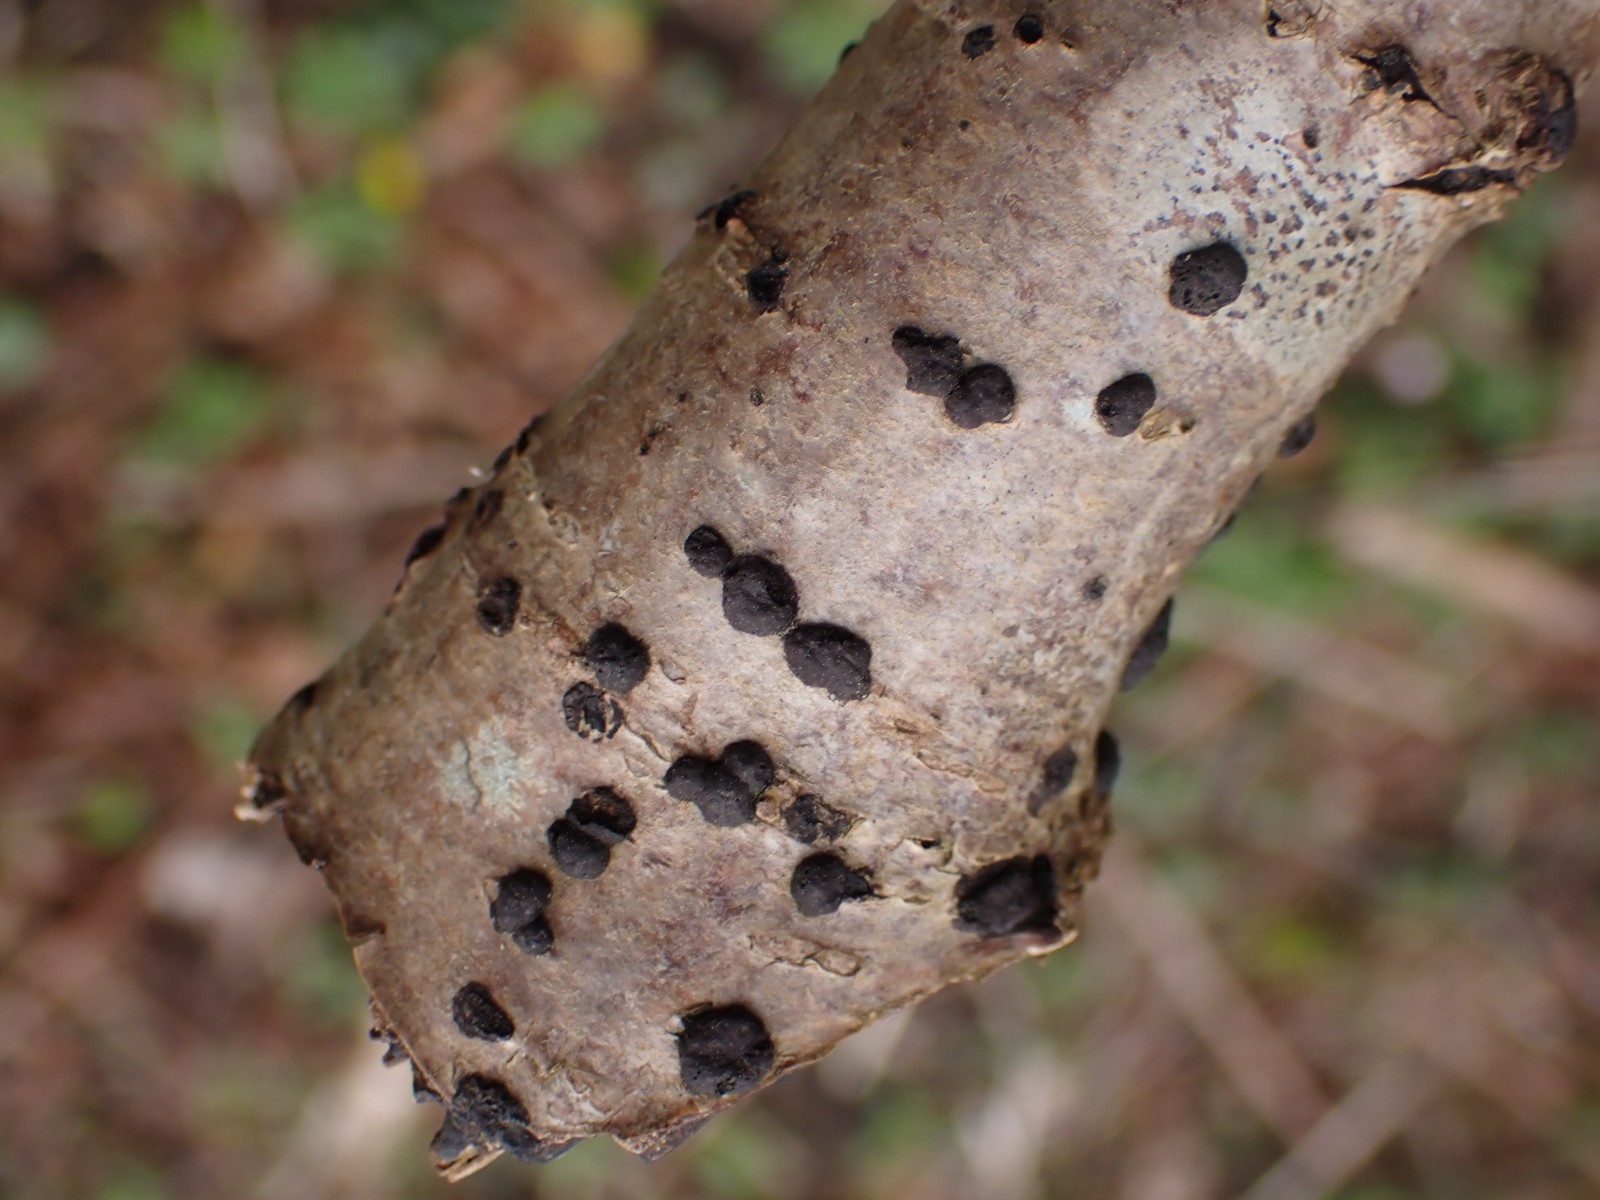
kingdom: Fungi
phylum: Ascomycota
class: Sordariomycetes
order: Xylariales
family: Hypoxylaceae
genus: Hypoxylon
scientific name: Hypoxylon fuscum
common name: kegleformet kulbær
